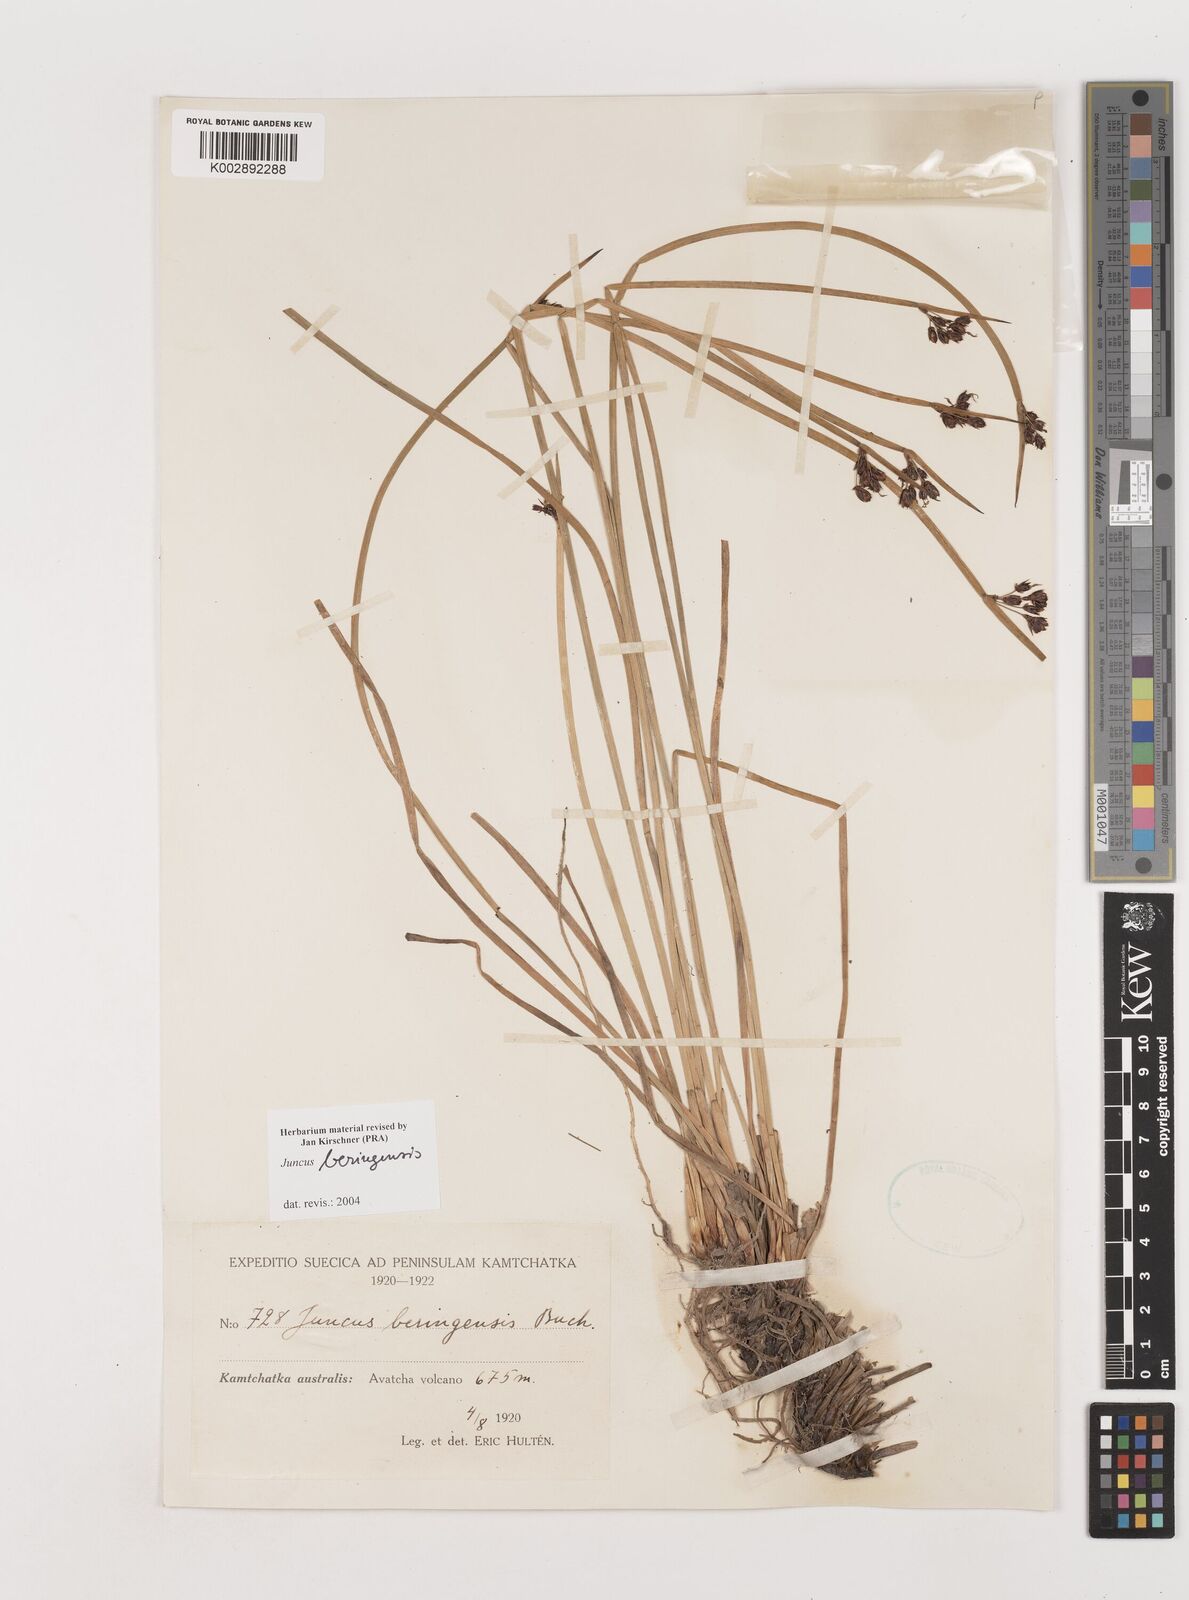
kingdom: Plantae
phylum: Tracheophyta
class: Liliopsida
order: Poales
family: Juncaceae
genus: Juncus
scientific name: Juncus beringensis
